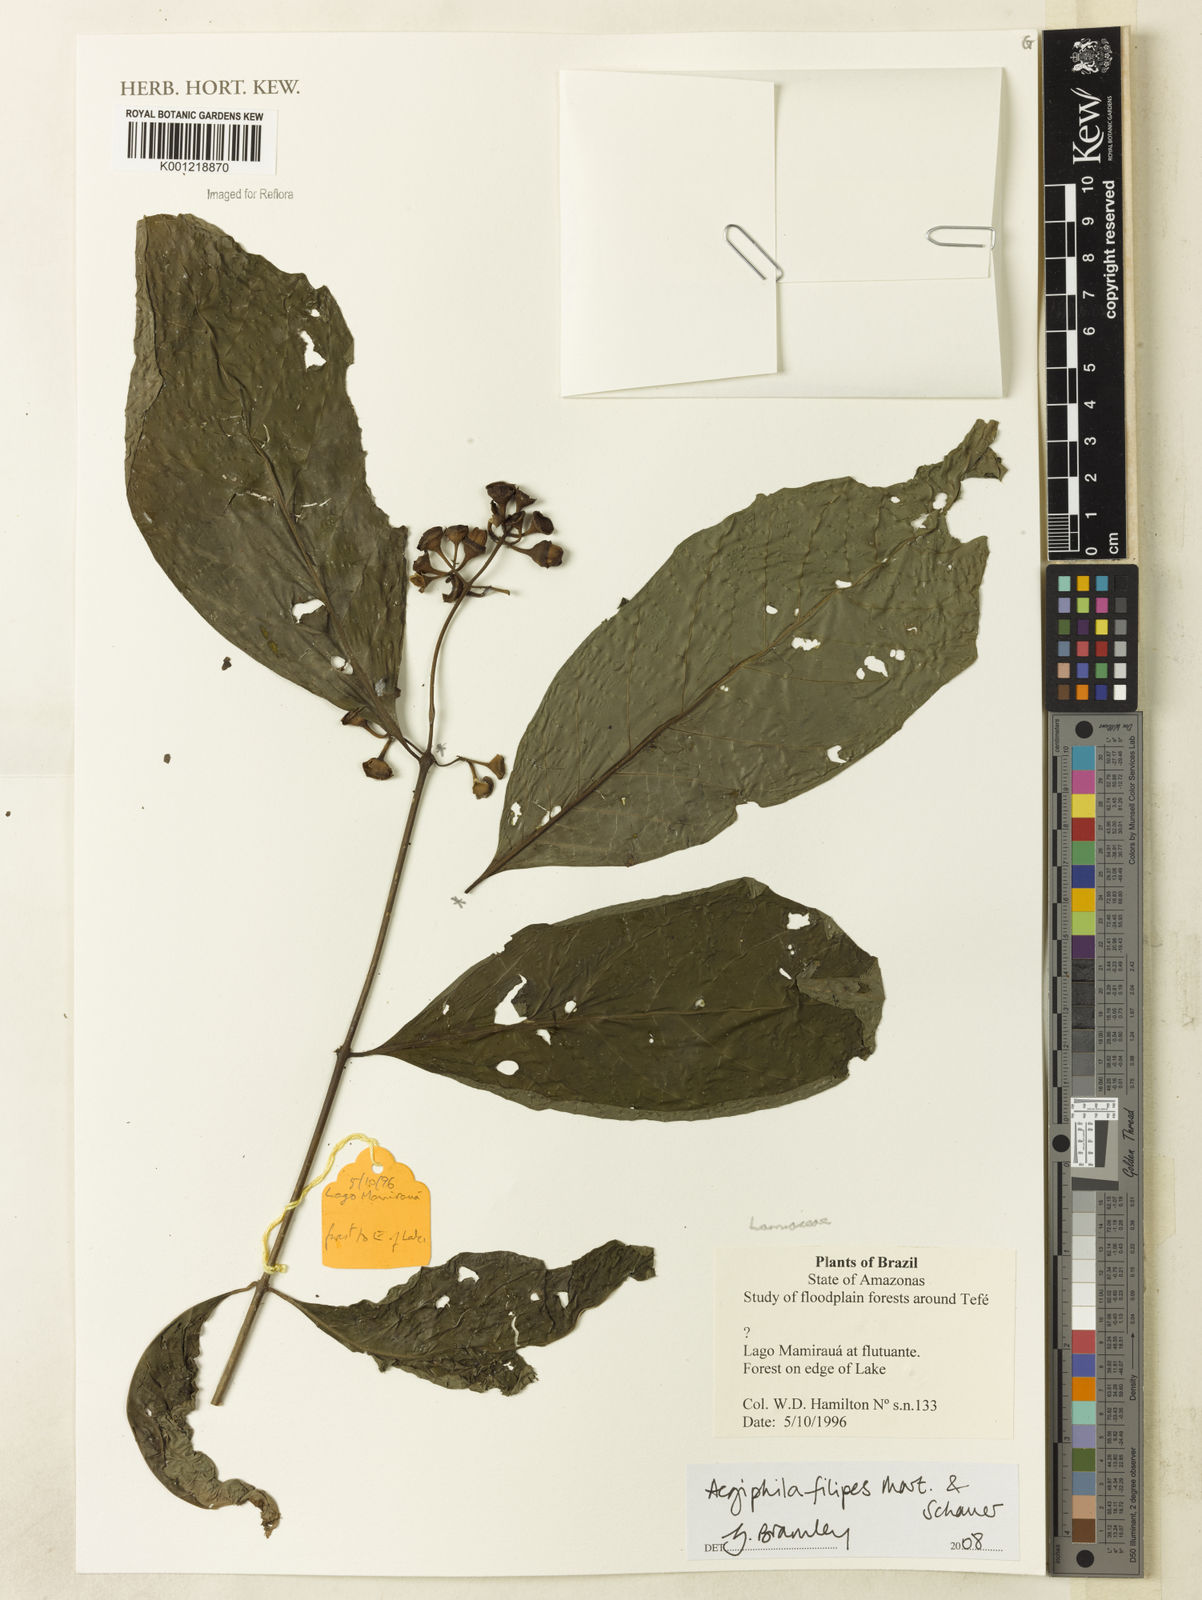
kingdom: Plantae
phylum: Tracheophyta
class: Magnoliopsida
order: Lamiales
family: Lamiaceae
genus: Aegiphila
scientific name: Aegiphila filipes
